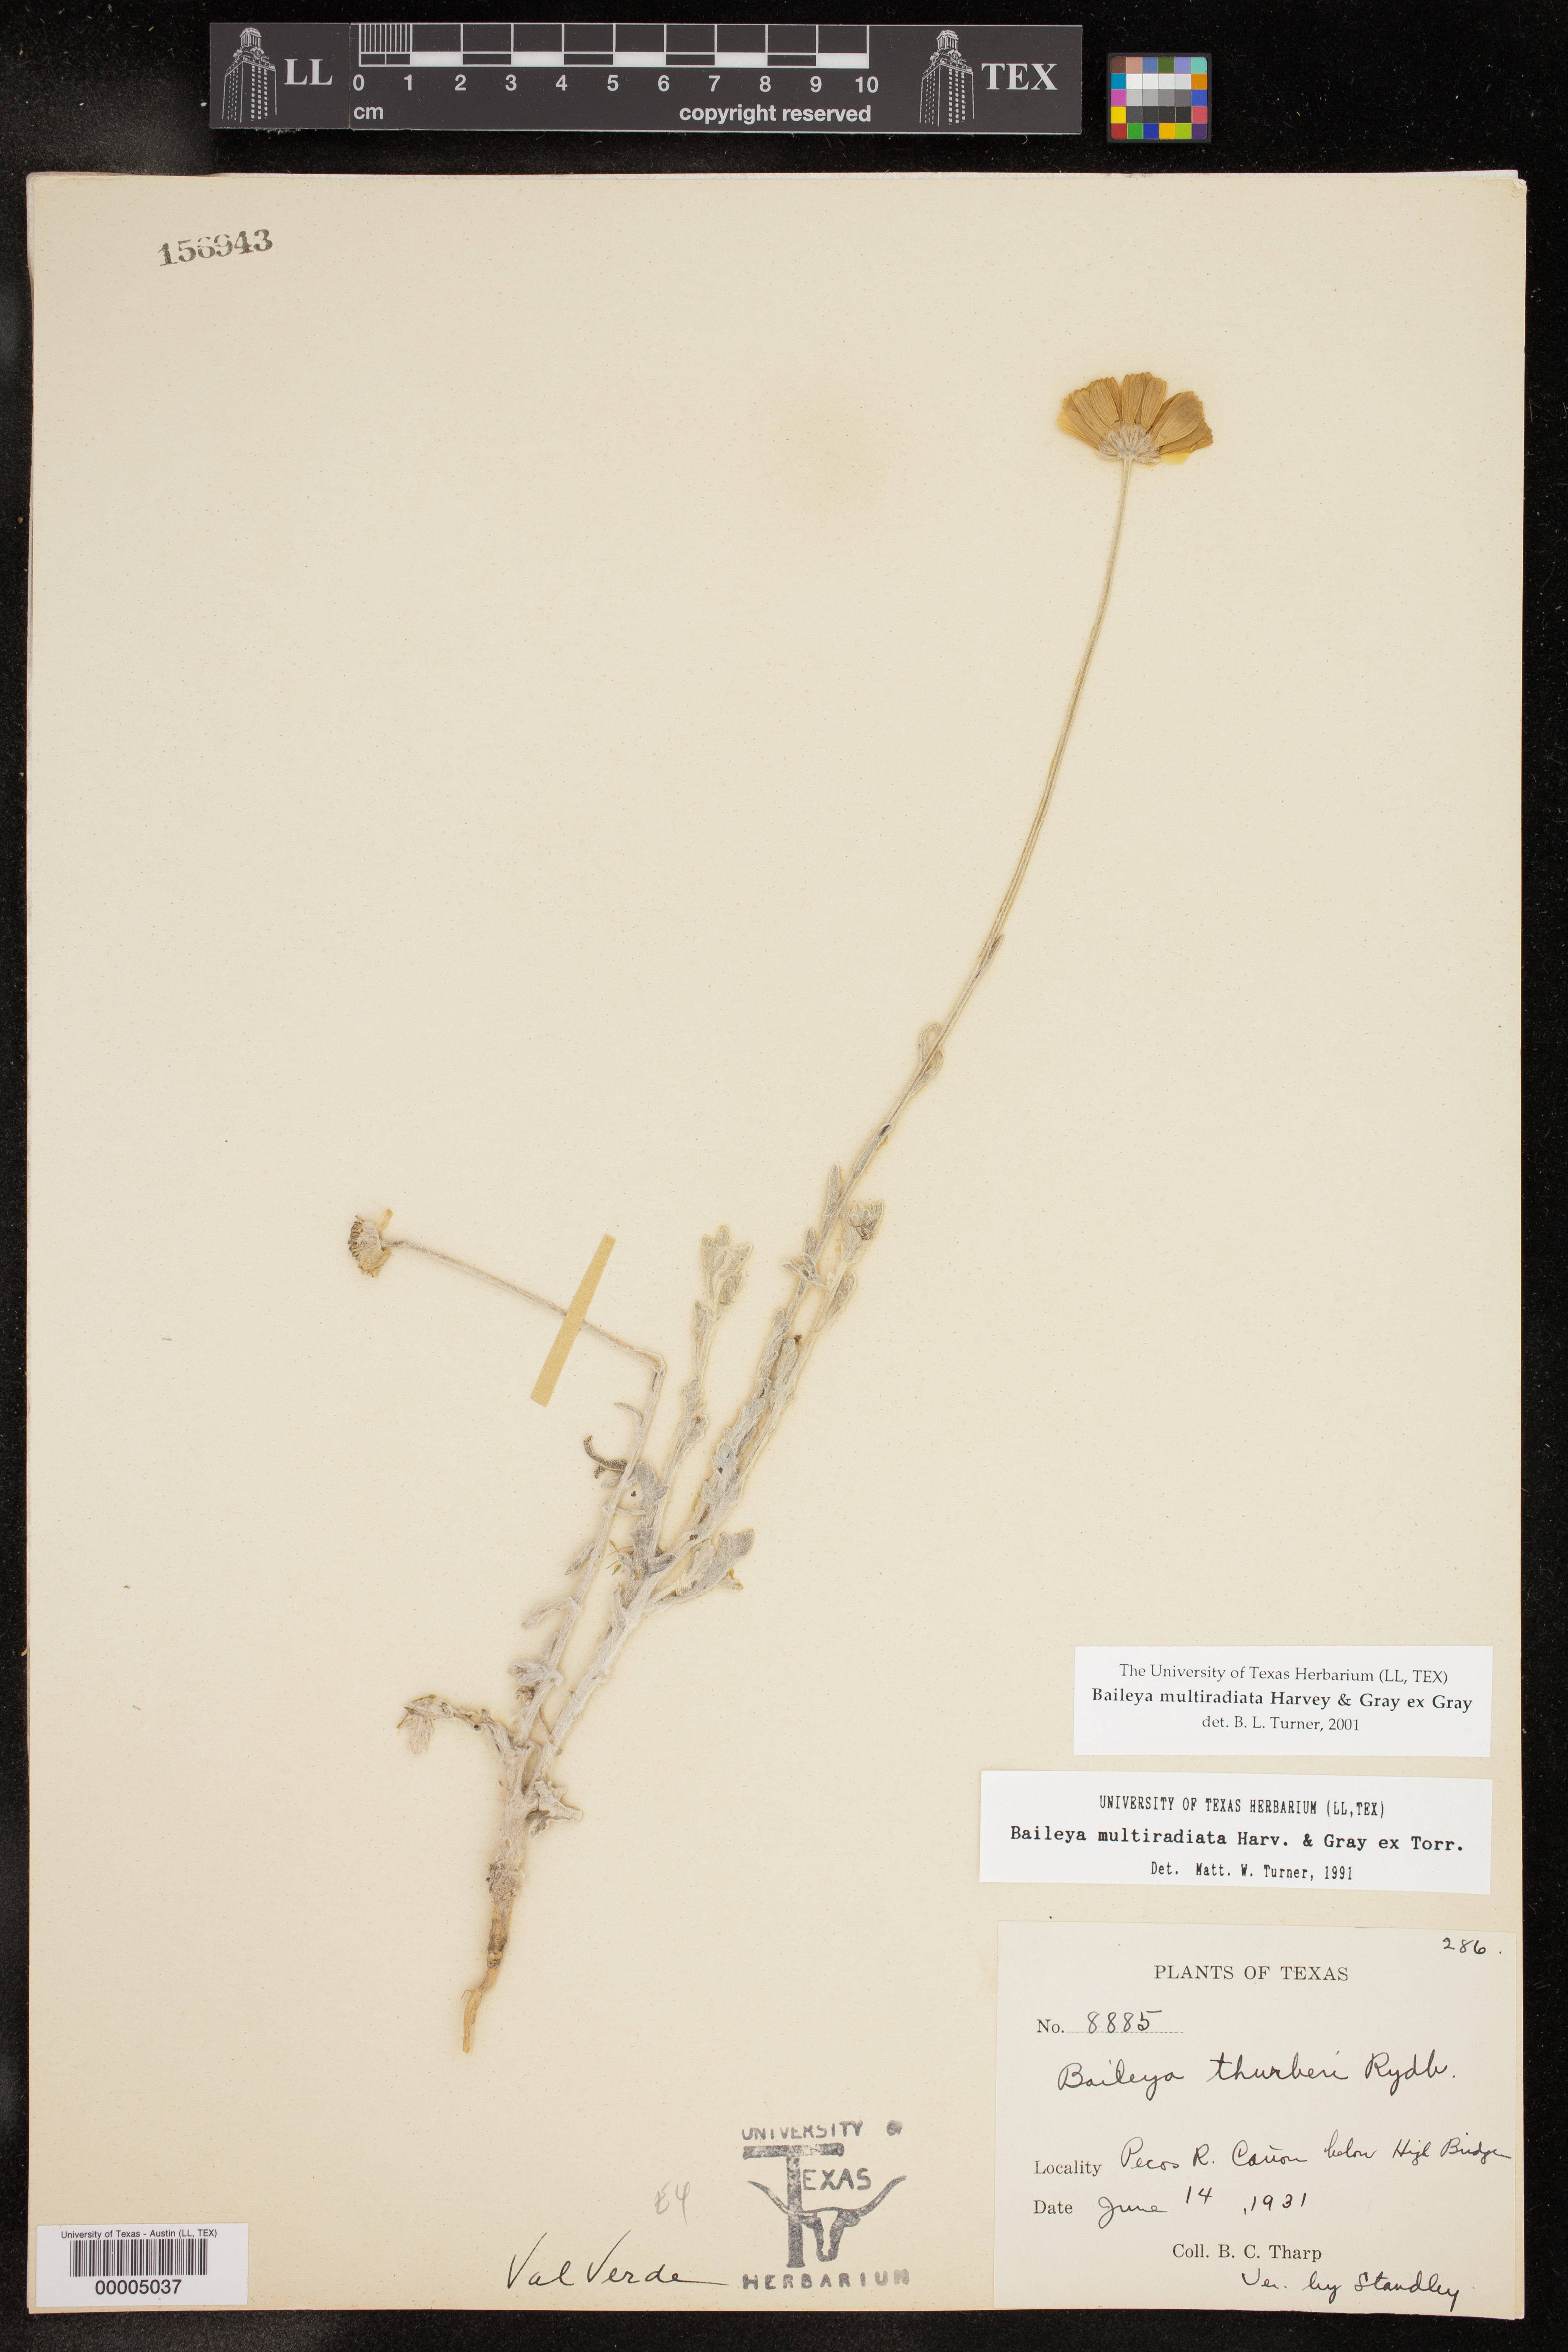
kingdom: Plantae
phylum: Tracheophyta
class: Magnoliopsida
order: Asterales
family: Asteraceae
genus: Baileya
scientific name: Baileya multiradiata
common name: Desert-marigold
